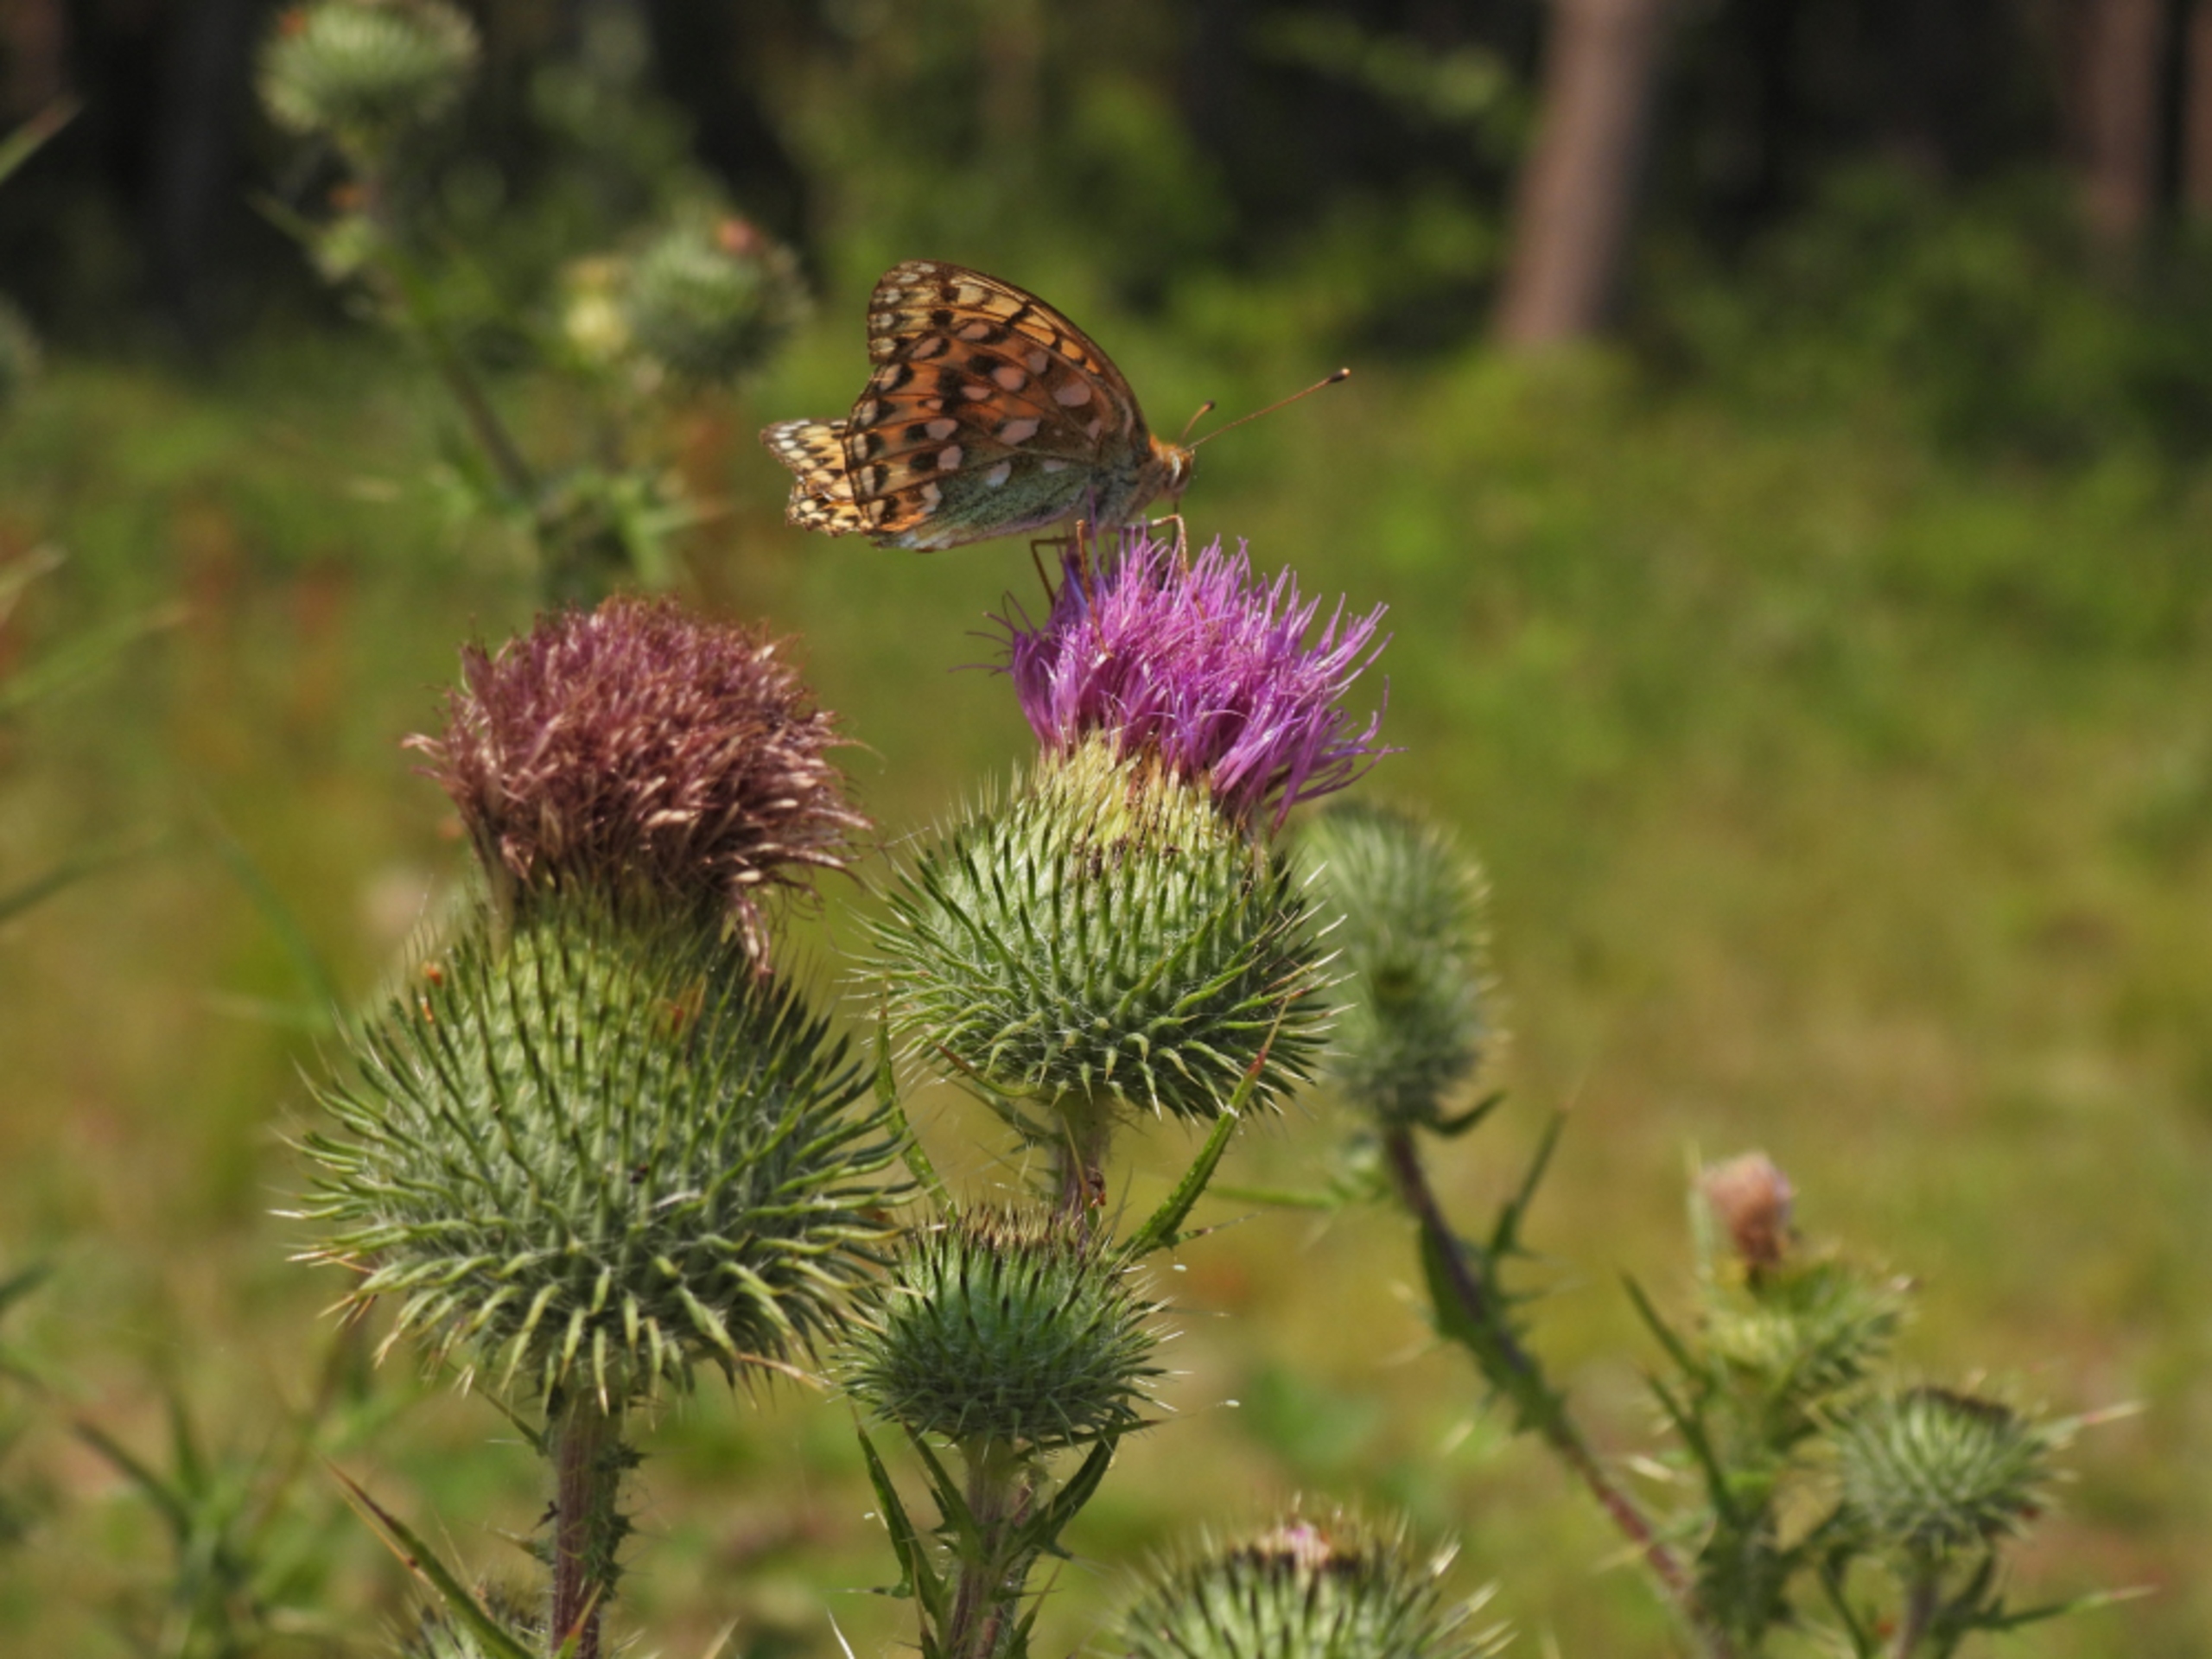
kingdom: Animalia
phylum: Arthropoda
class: Insecta
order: Lepidoptera
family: Nymphalidae
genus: Speyeria
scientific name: Speyeria aglaja
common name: Markperlemorsommerfugl
